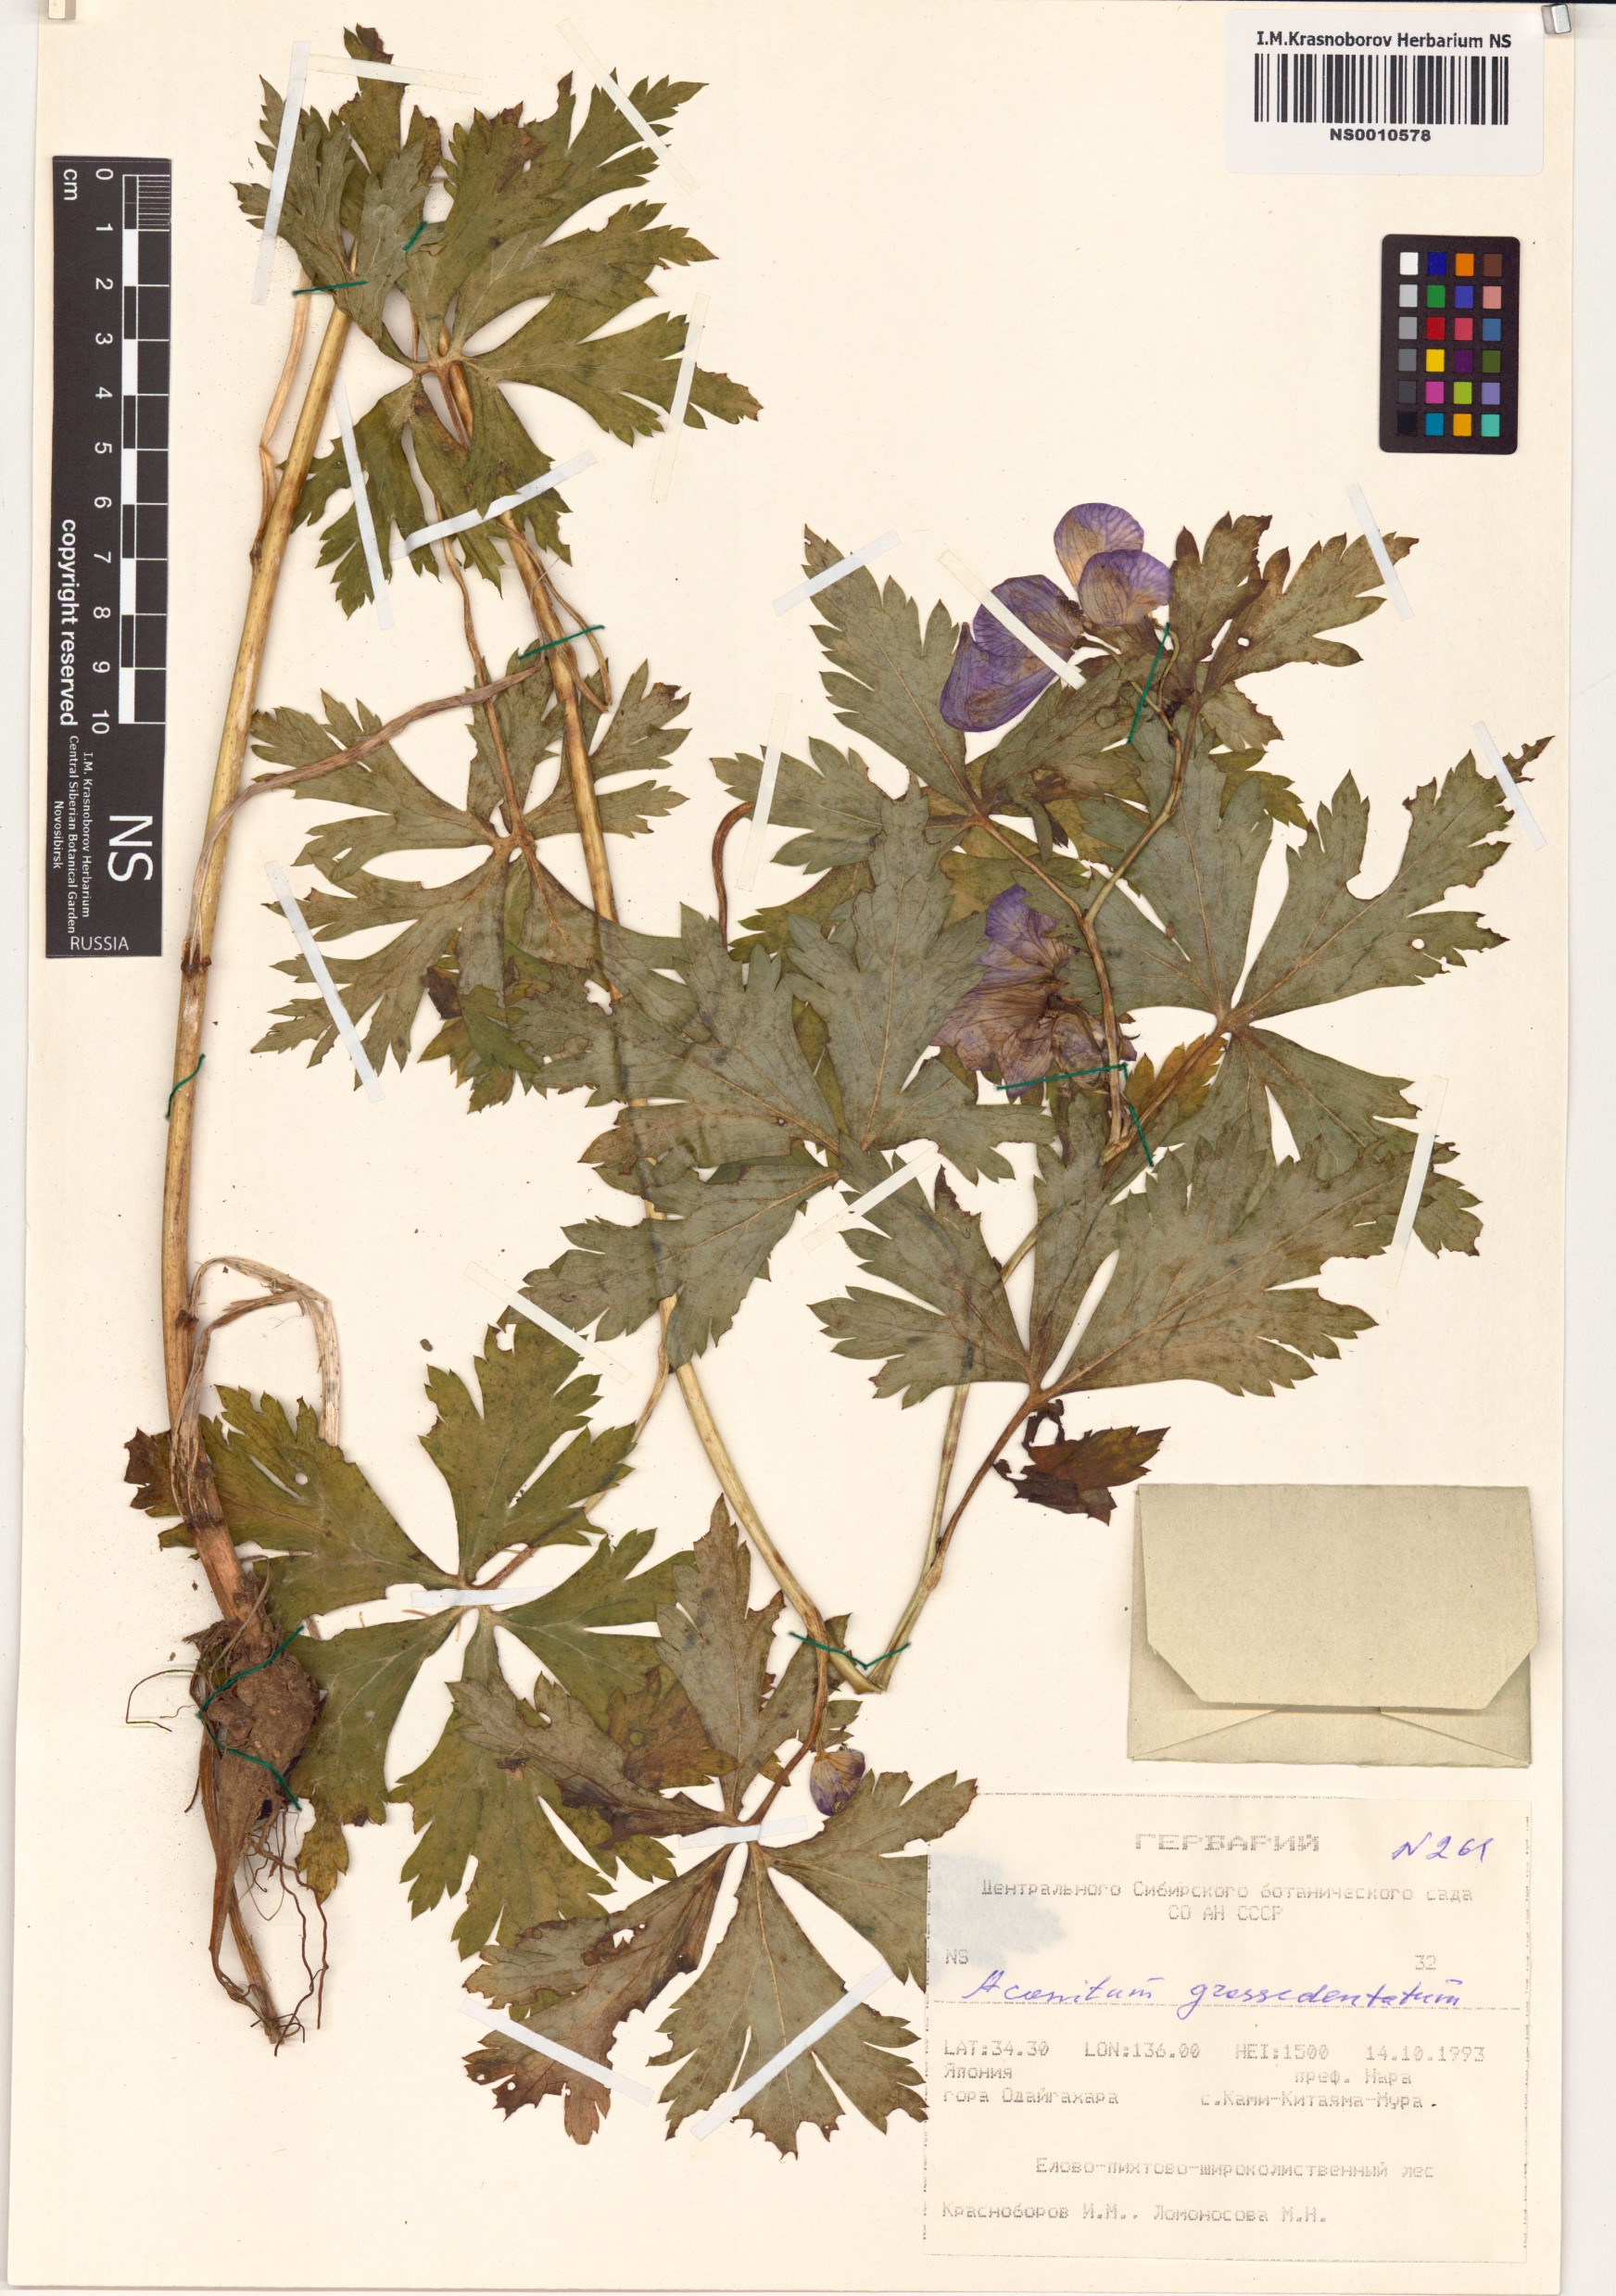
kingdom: Plantae
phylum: Tracheophyta
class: Magnoliopsida
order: Ranunculales
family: Ranunculaceae
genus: Aconitum
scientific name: Aconitum zigzag
